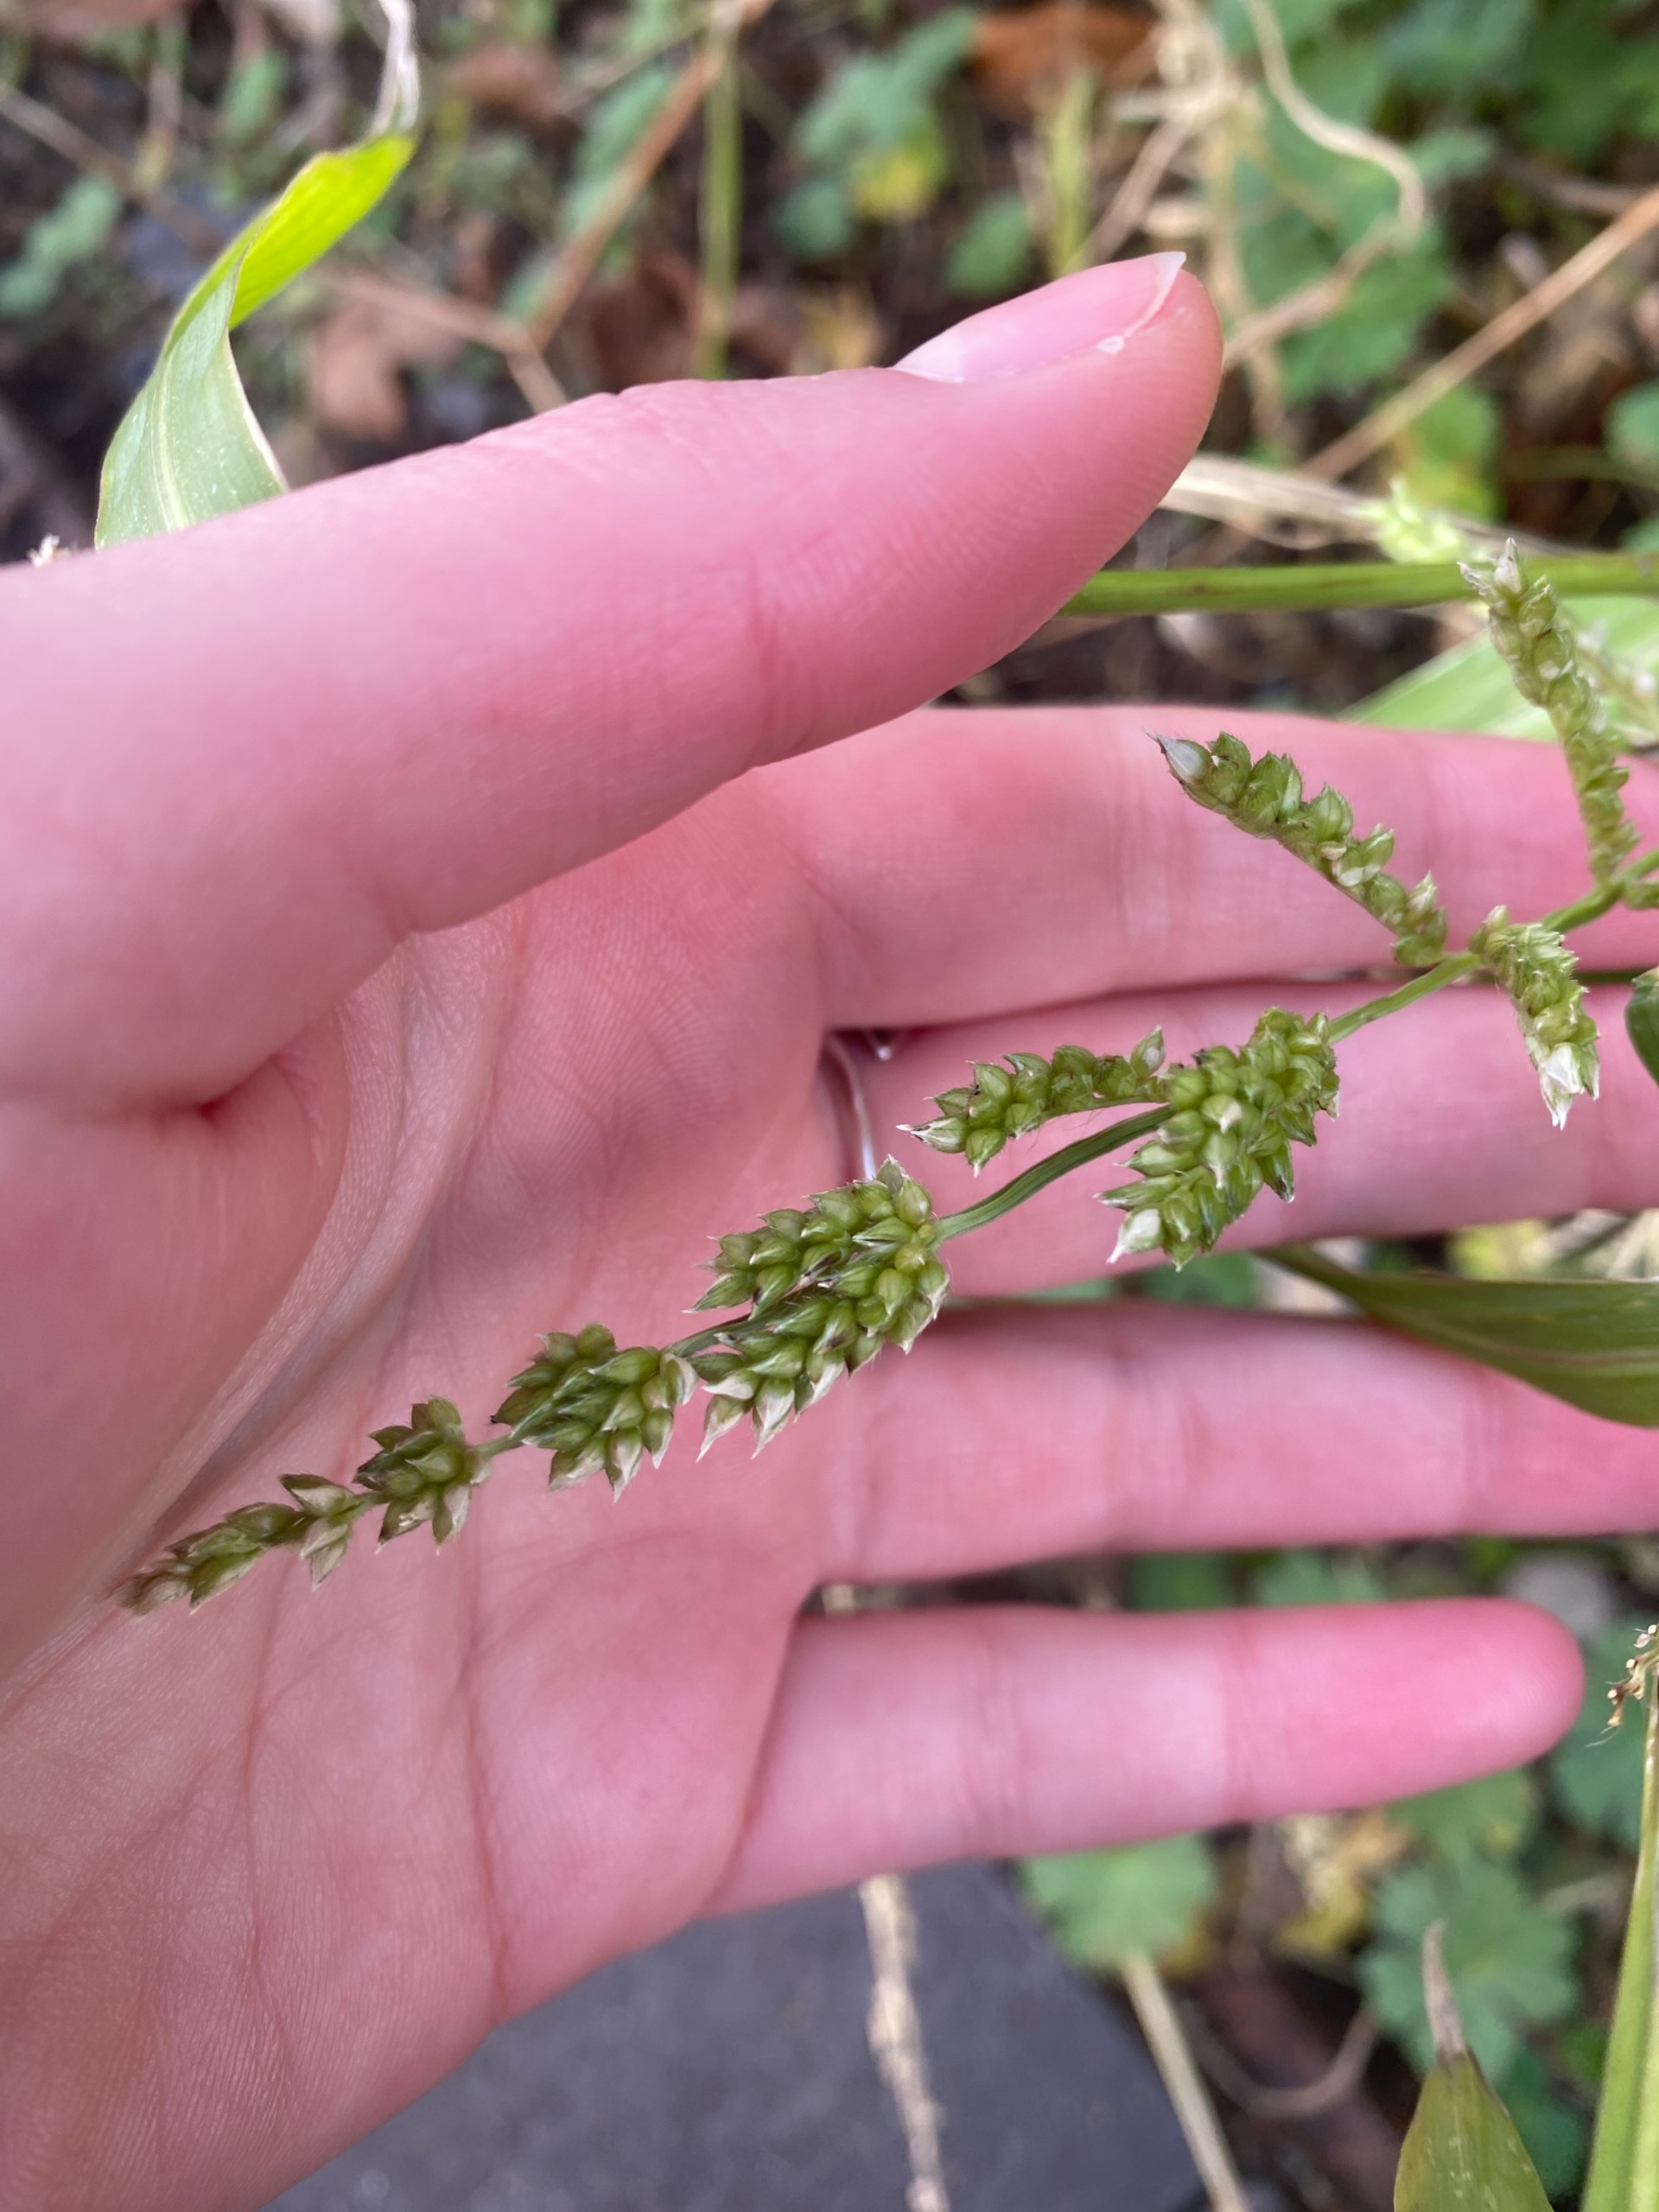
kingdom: Plantae
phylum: Tracheophyta
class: Liliopsida
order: Poales
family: Poaceae
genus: Echinochloa
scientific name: Echinochloa crus-galli
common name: Almindelig hanespore
